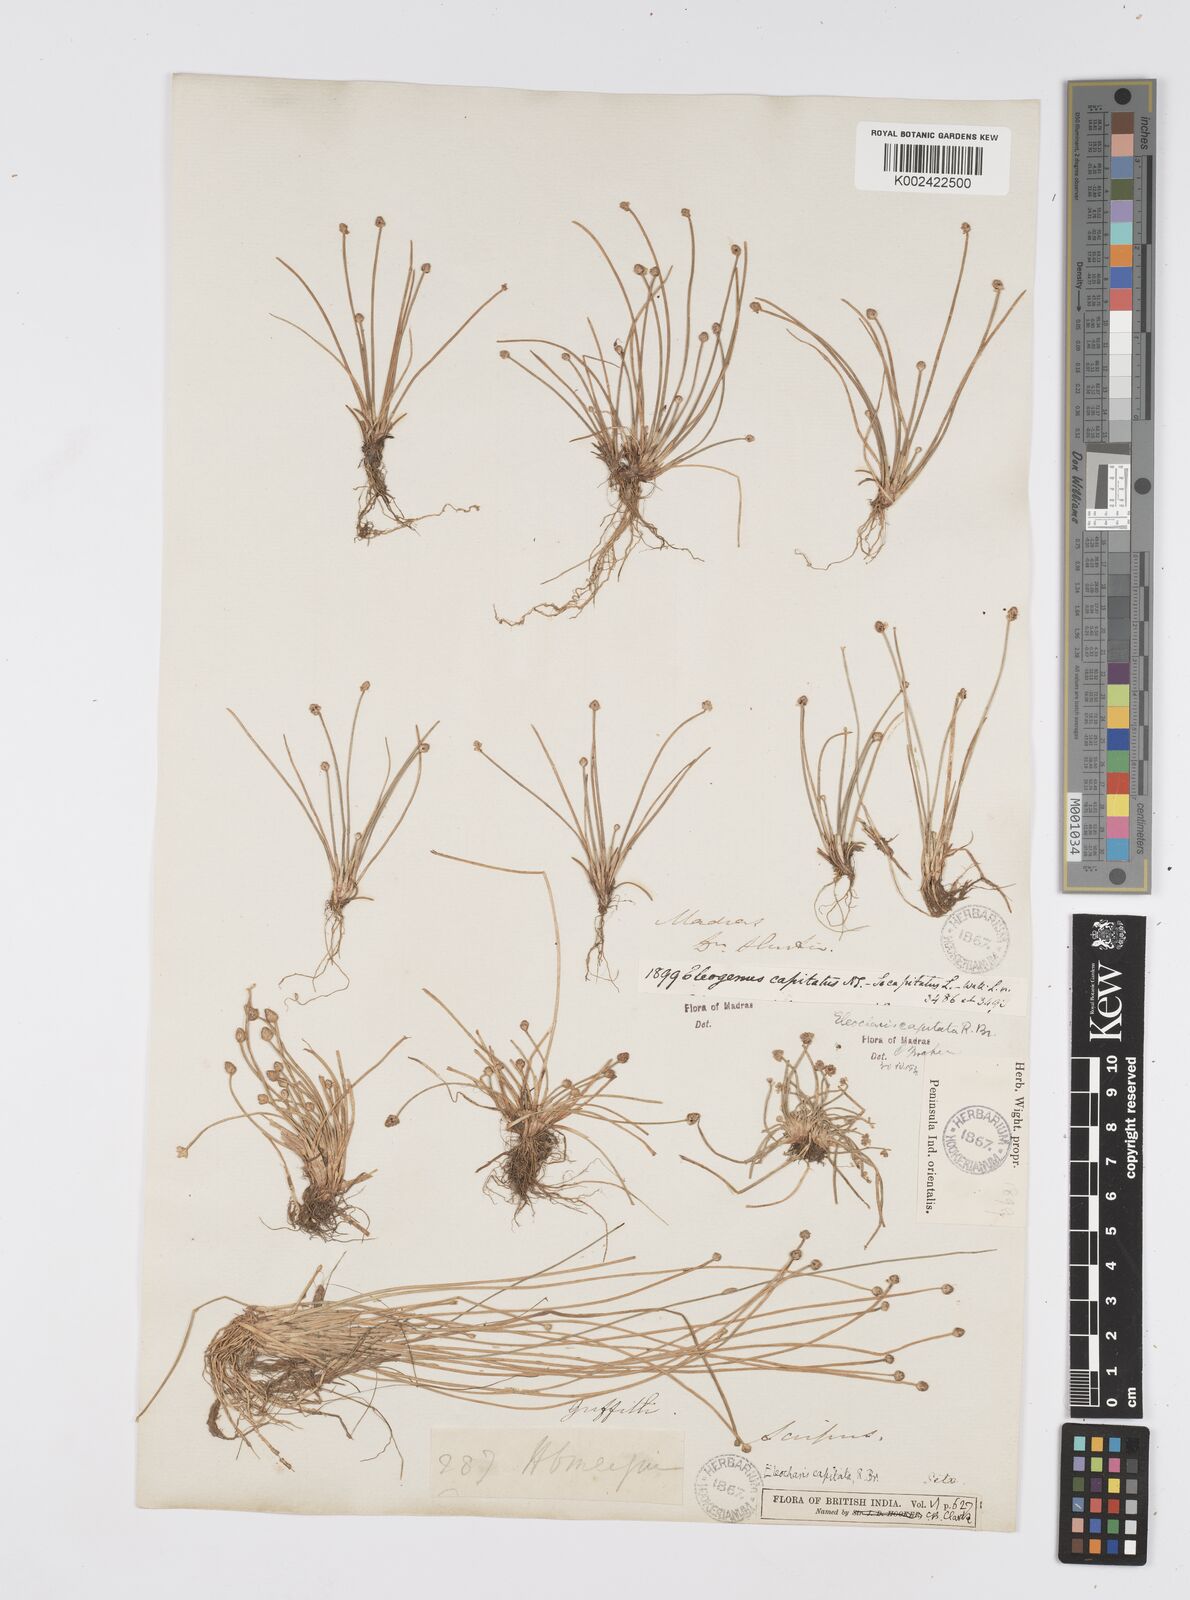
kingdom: Plantae
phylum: Tracheophyta
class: Liliopsida
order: Poales
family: Cyperaceae
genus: Eleocharis
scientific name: Eleocharis geniculata
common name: Canada spikesedge
